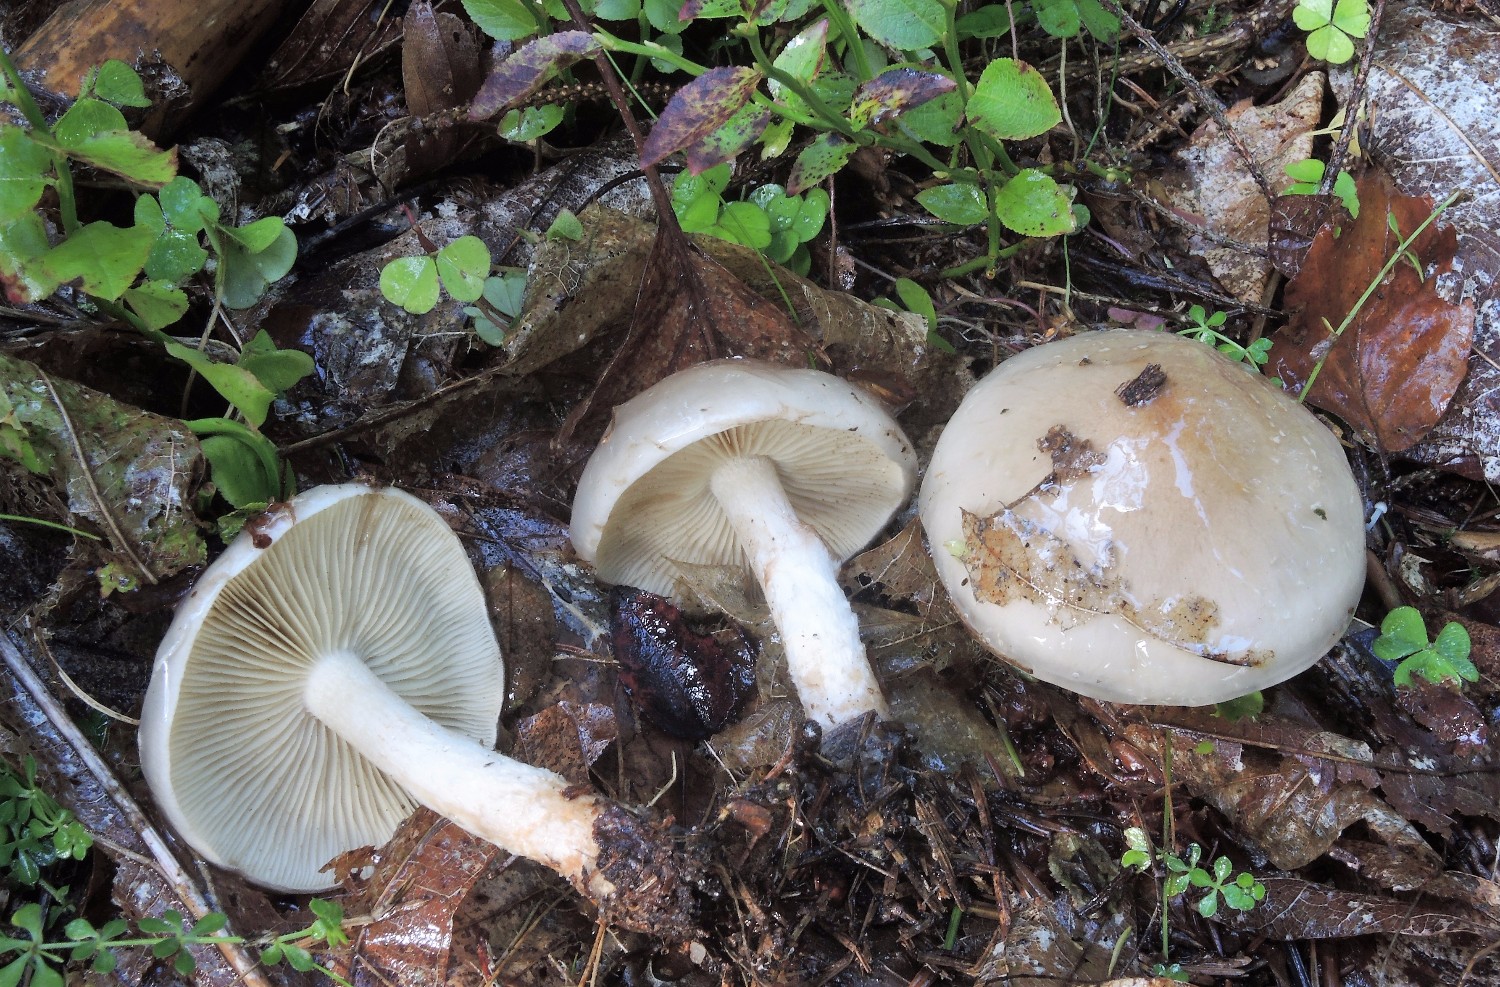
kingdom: Fungi
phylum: Basidiomycota
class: Agaricomycetes
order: Agaricales
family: Strophariaceae
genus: Pholiota
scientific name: Pholiota lenta
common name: løv-skælhat
